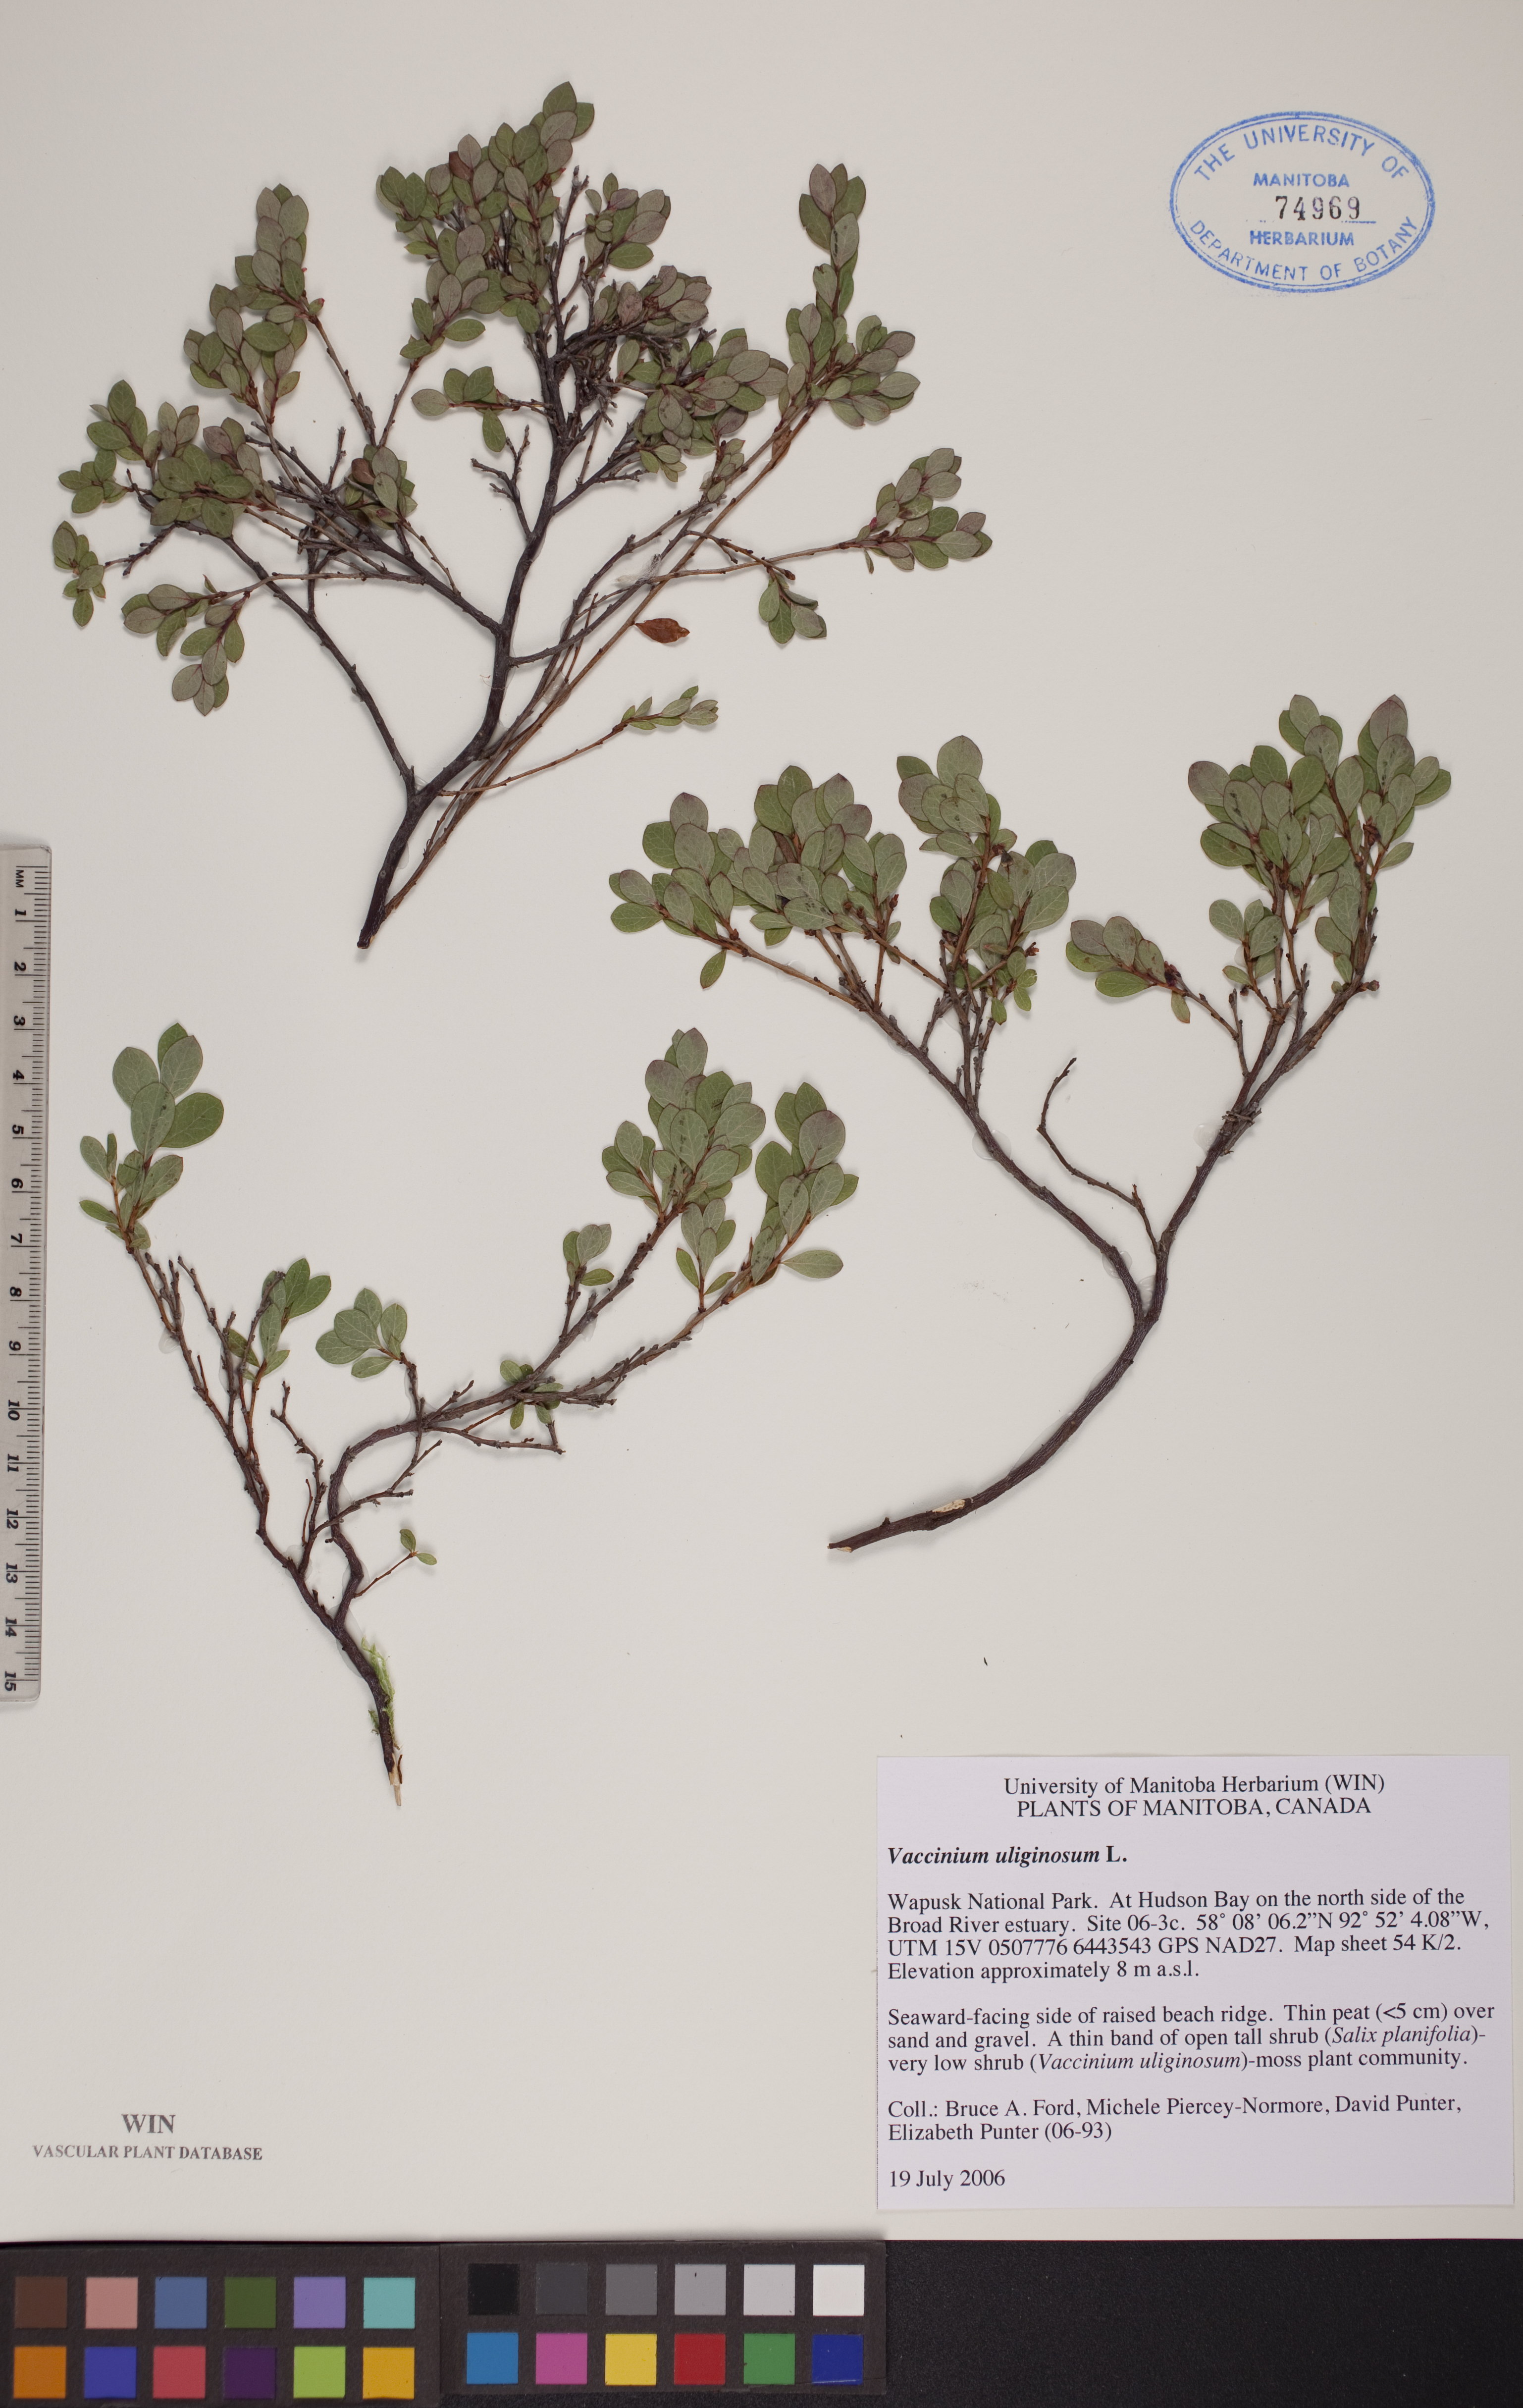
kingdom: Plantae
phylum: Tracheophyta
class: Magnoliopsida
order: Ericales
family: Ericaceae
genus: Vaccinium
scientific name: Vaccinium uliginosum
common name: Bog bilberry
